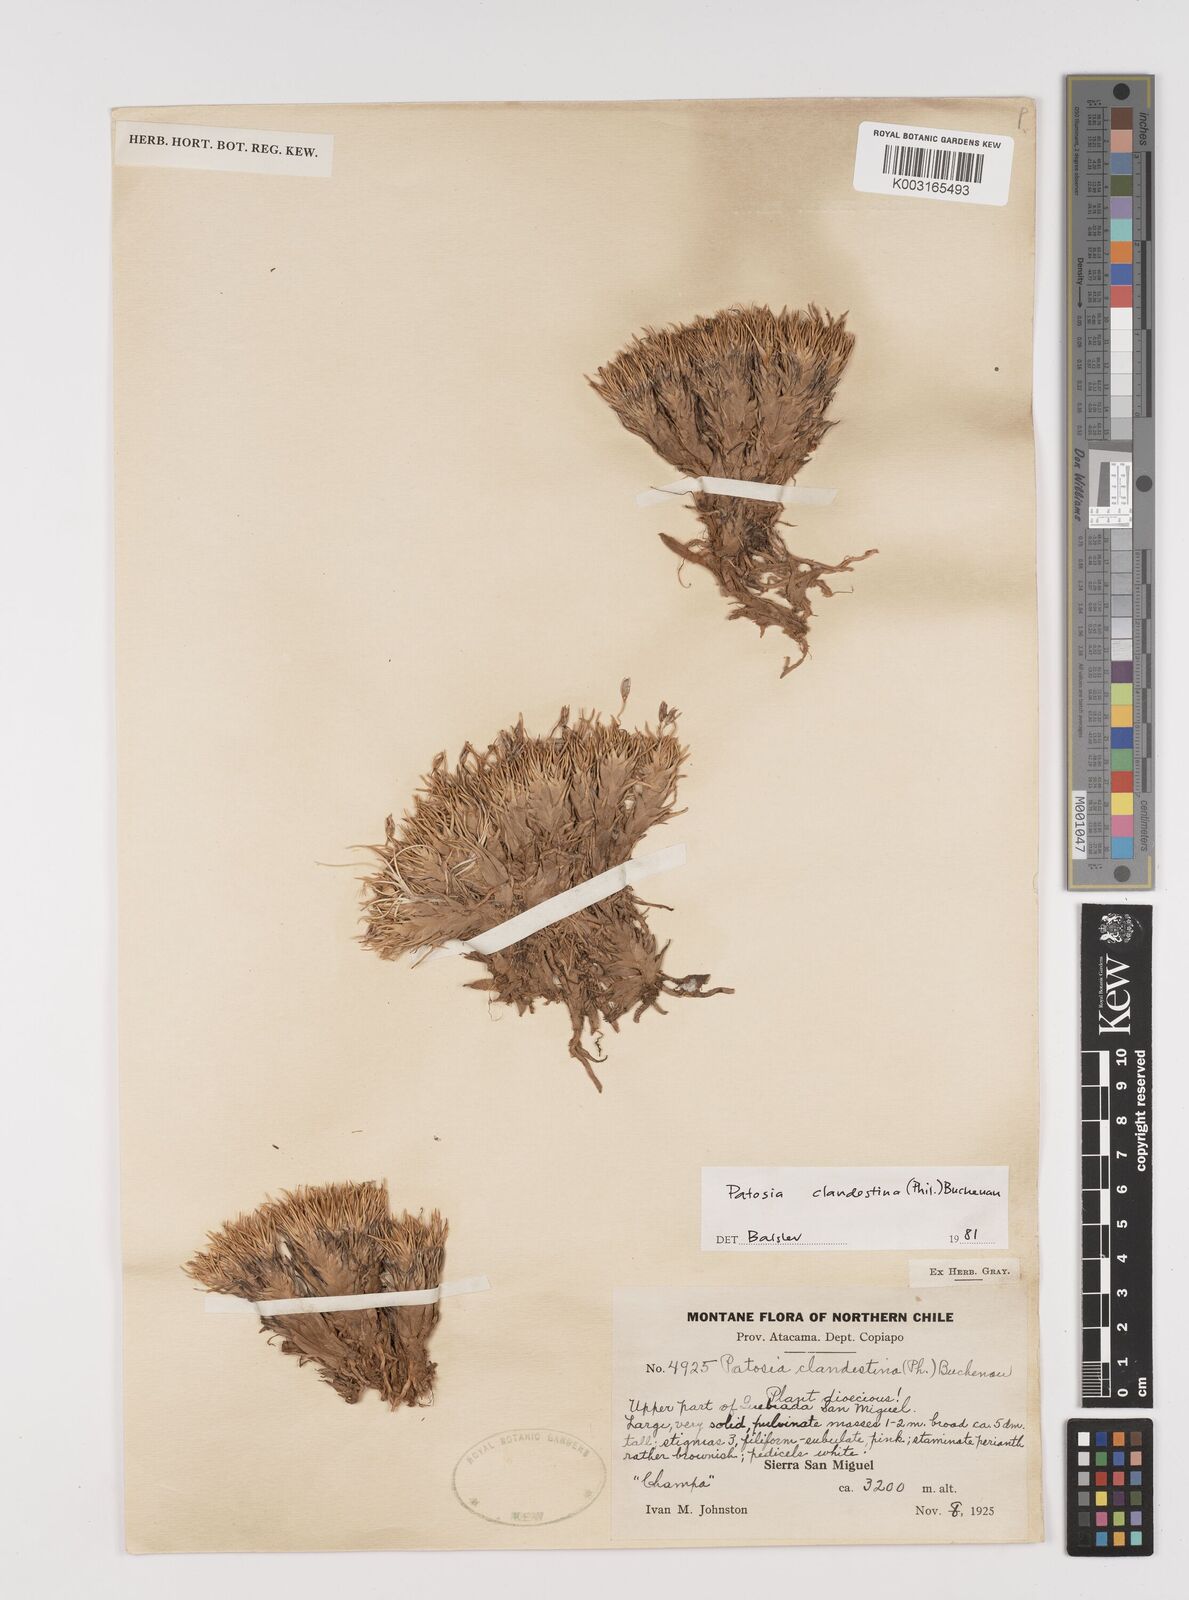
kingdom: Plantae
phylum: Tracheophyta
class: Liliopsida
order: Poales
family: Juncaceae
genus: Patosia
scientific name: Patosia clandestina
